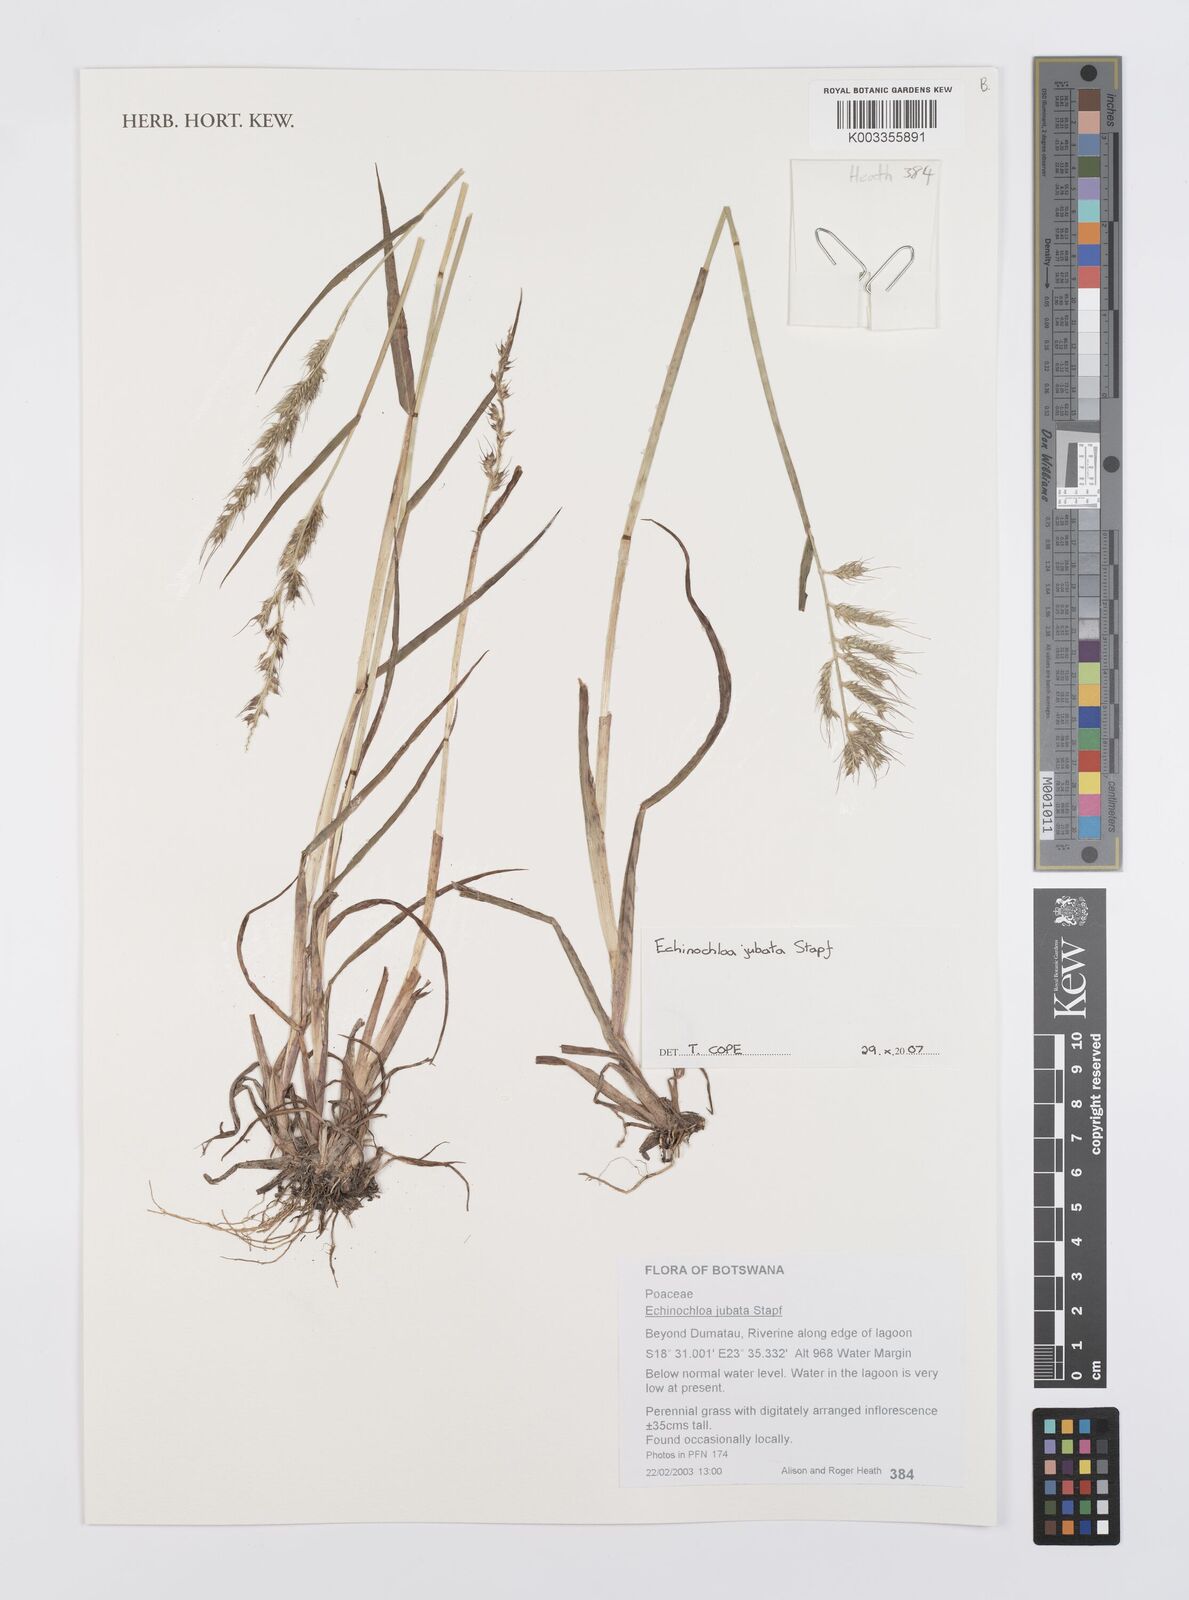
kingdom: Plantae
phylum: Tracheophyta
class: Liliopsida
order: Poales
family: Poaceae
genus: Echinochloa
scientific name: Echinochloa jubata
